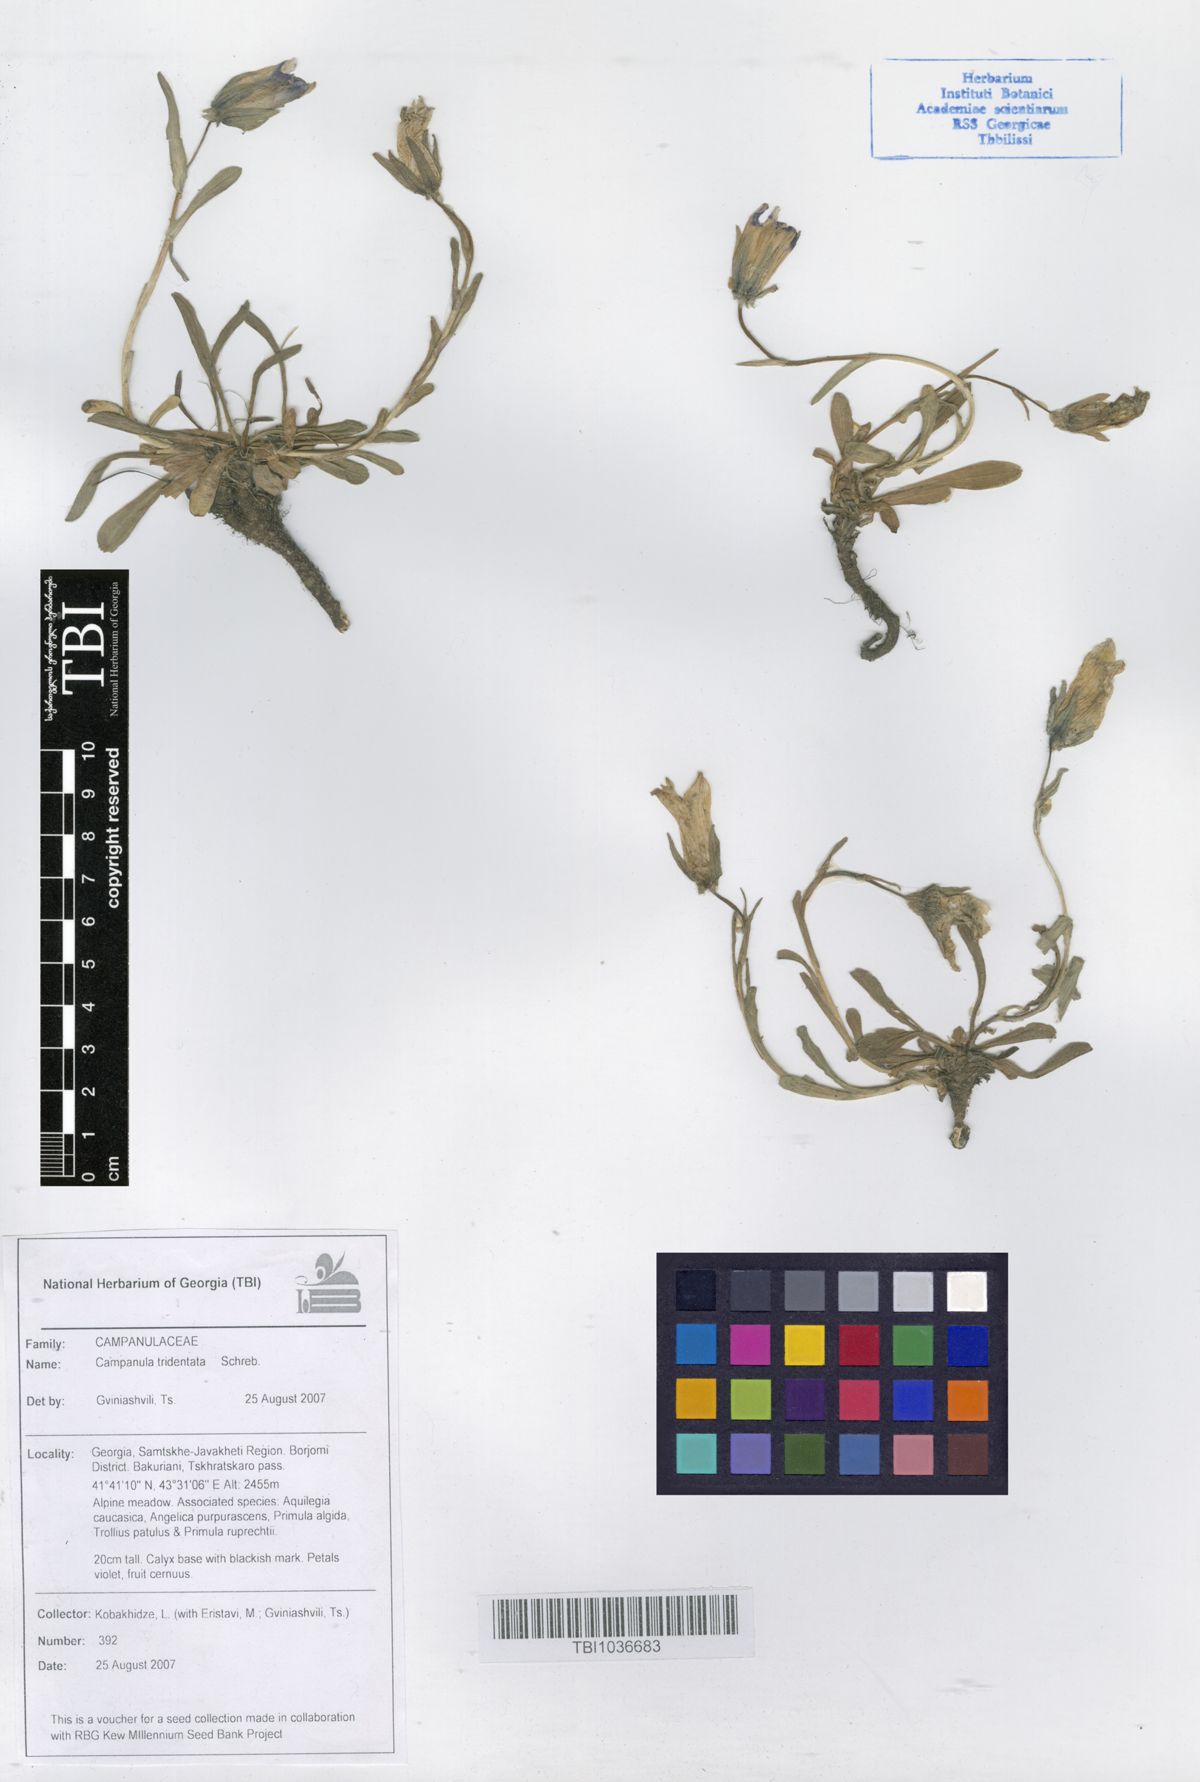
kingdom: Plantae
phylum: Tracheophyta
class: Magnoliopsida
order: Asterales
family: Campanulaceae
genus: Campanula
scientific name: Campanula tridentata
